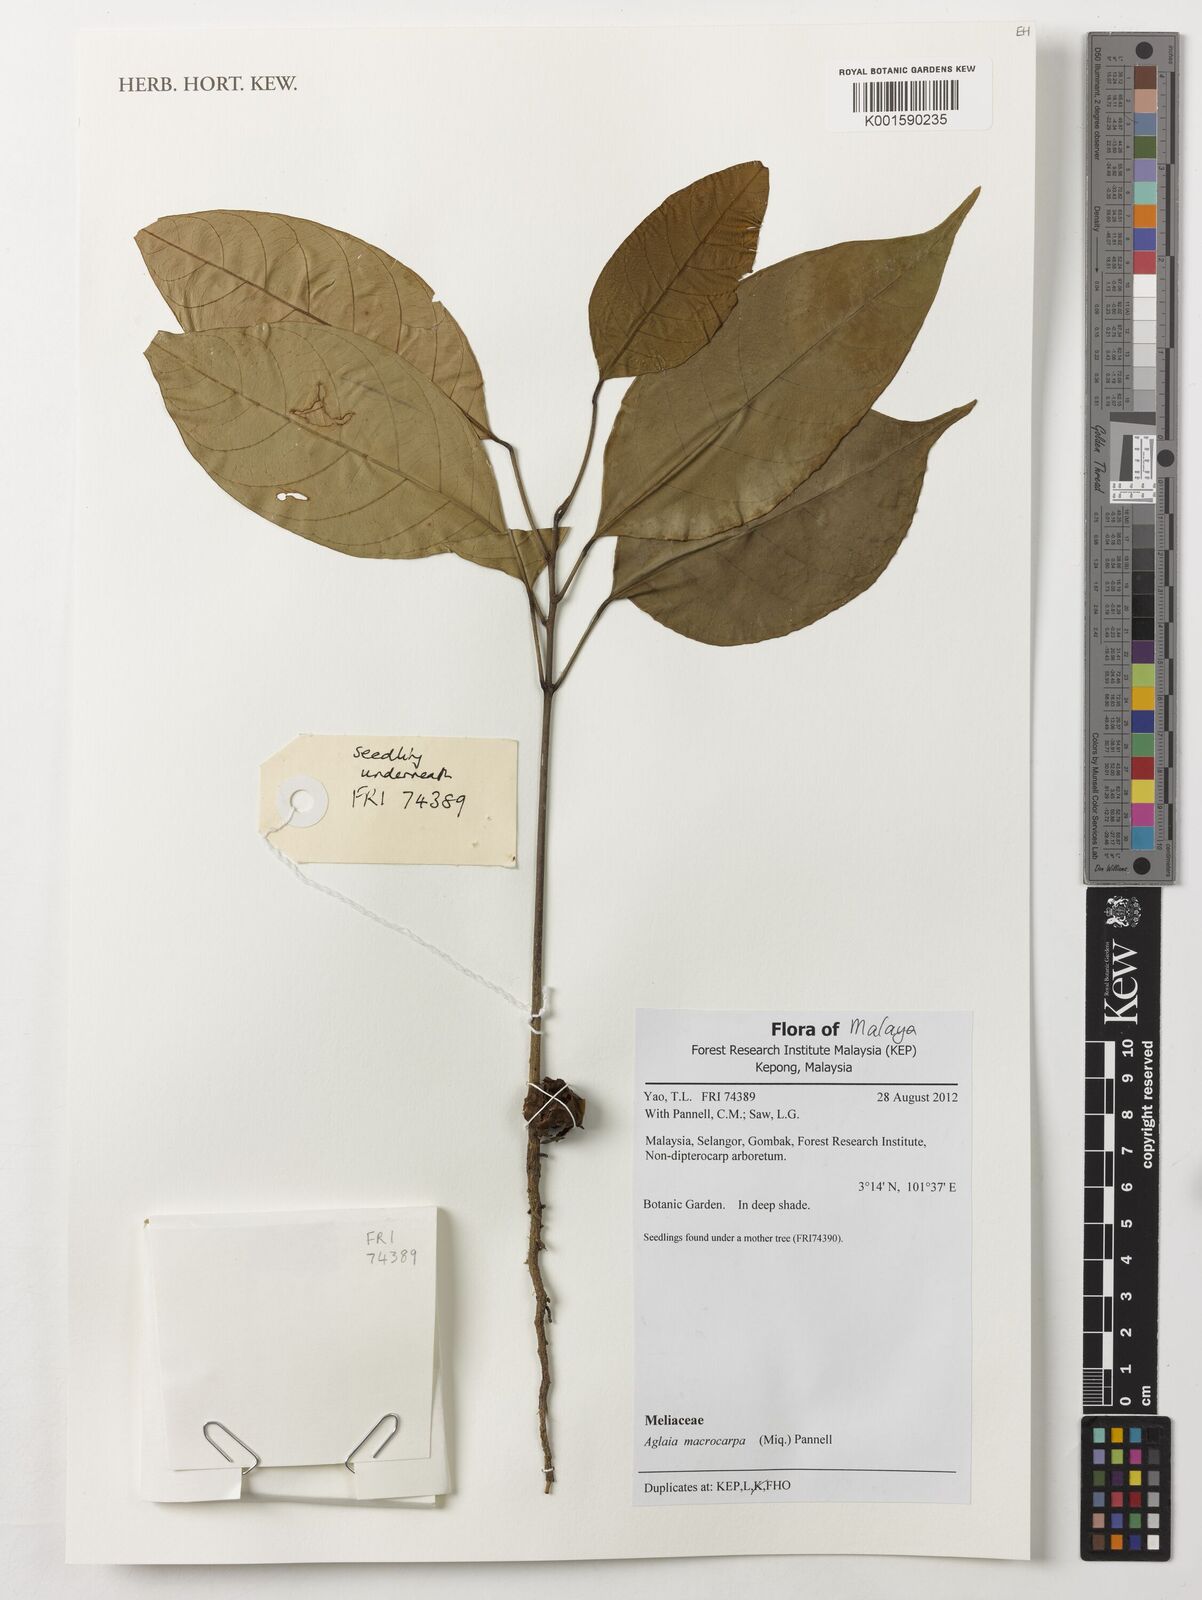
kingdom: Plantae
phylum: Tracheophyta
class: Magnoliopsida
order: Sapindales
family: Meliaceae
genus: Aglaia
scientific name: Aglaia macrocarpa
